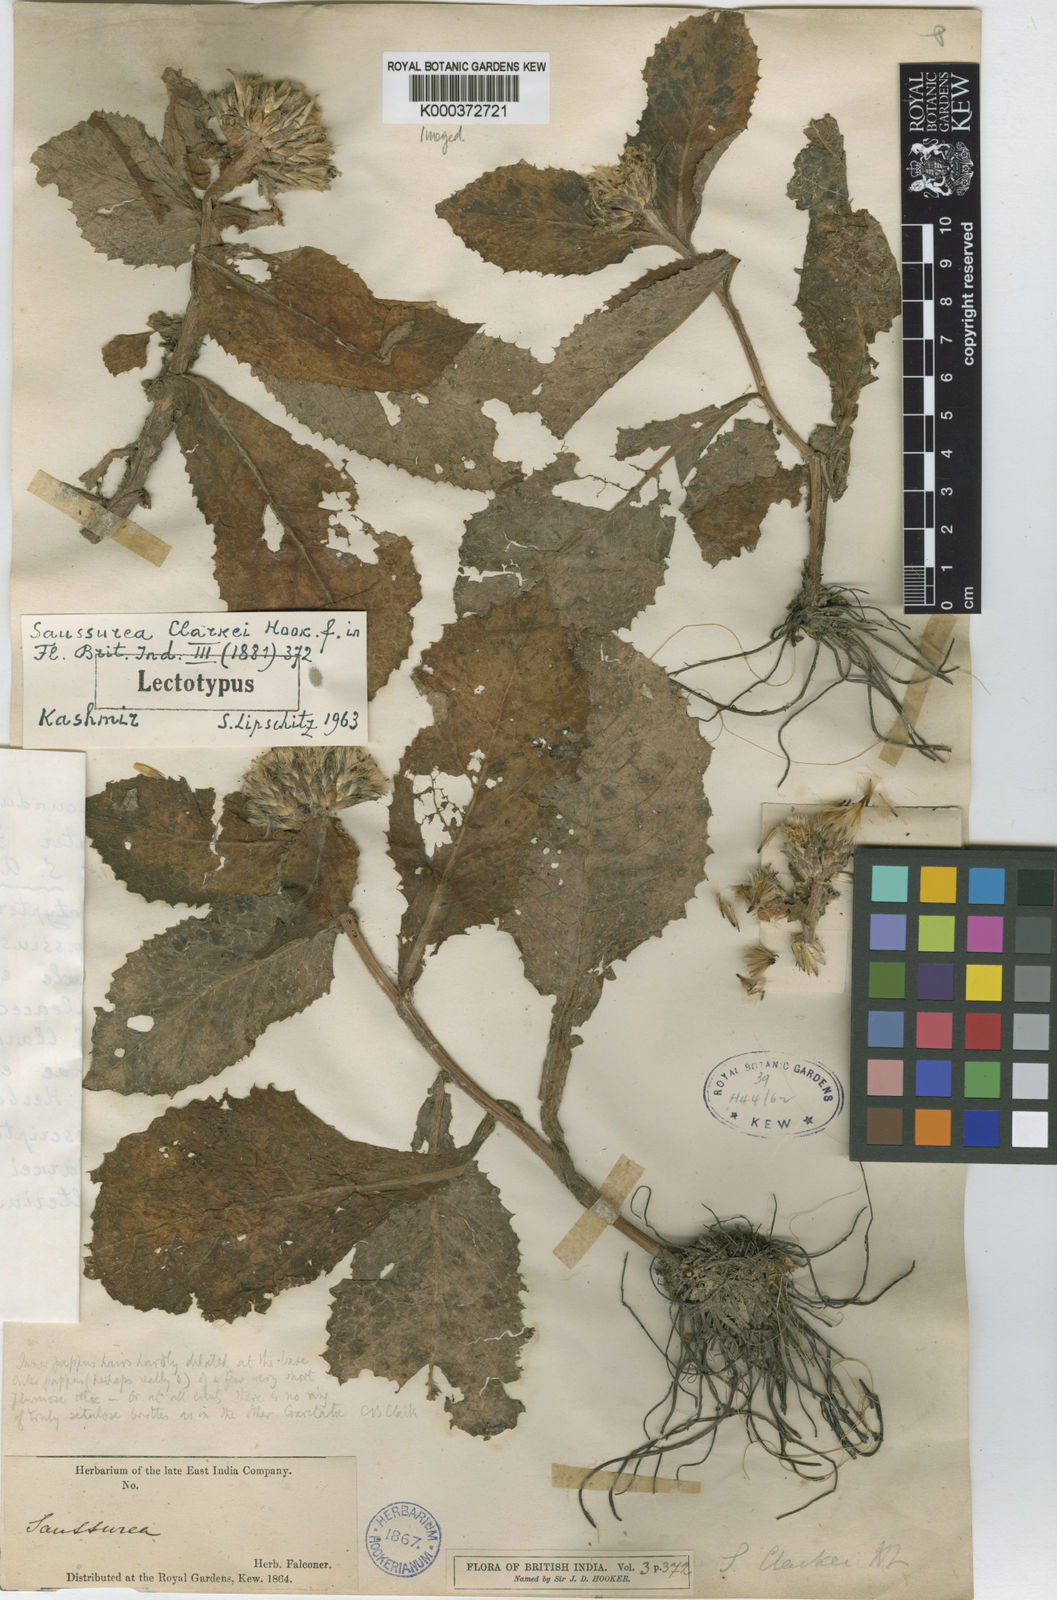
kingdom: Plantae
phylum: Tracheophyta
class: Magnoliopsida
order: Asterales
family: Asteraceae
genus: Saussurea
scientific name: Saussurea candolleana
